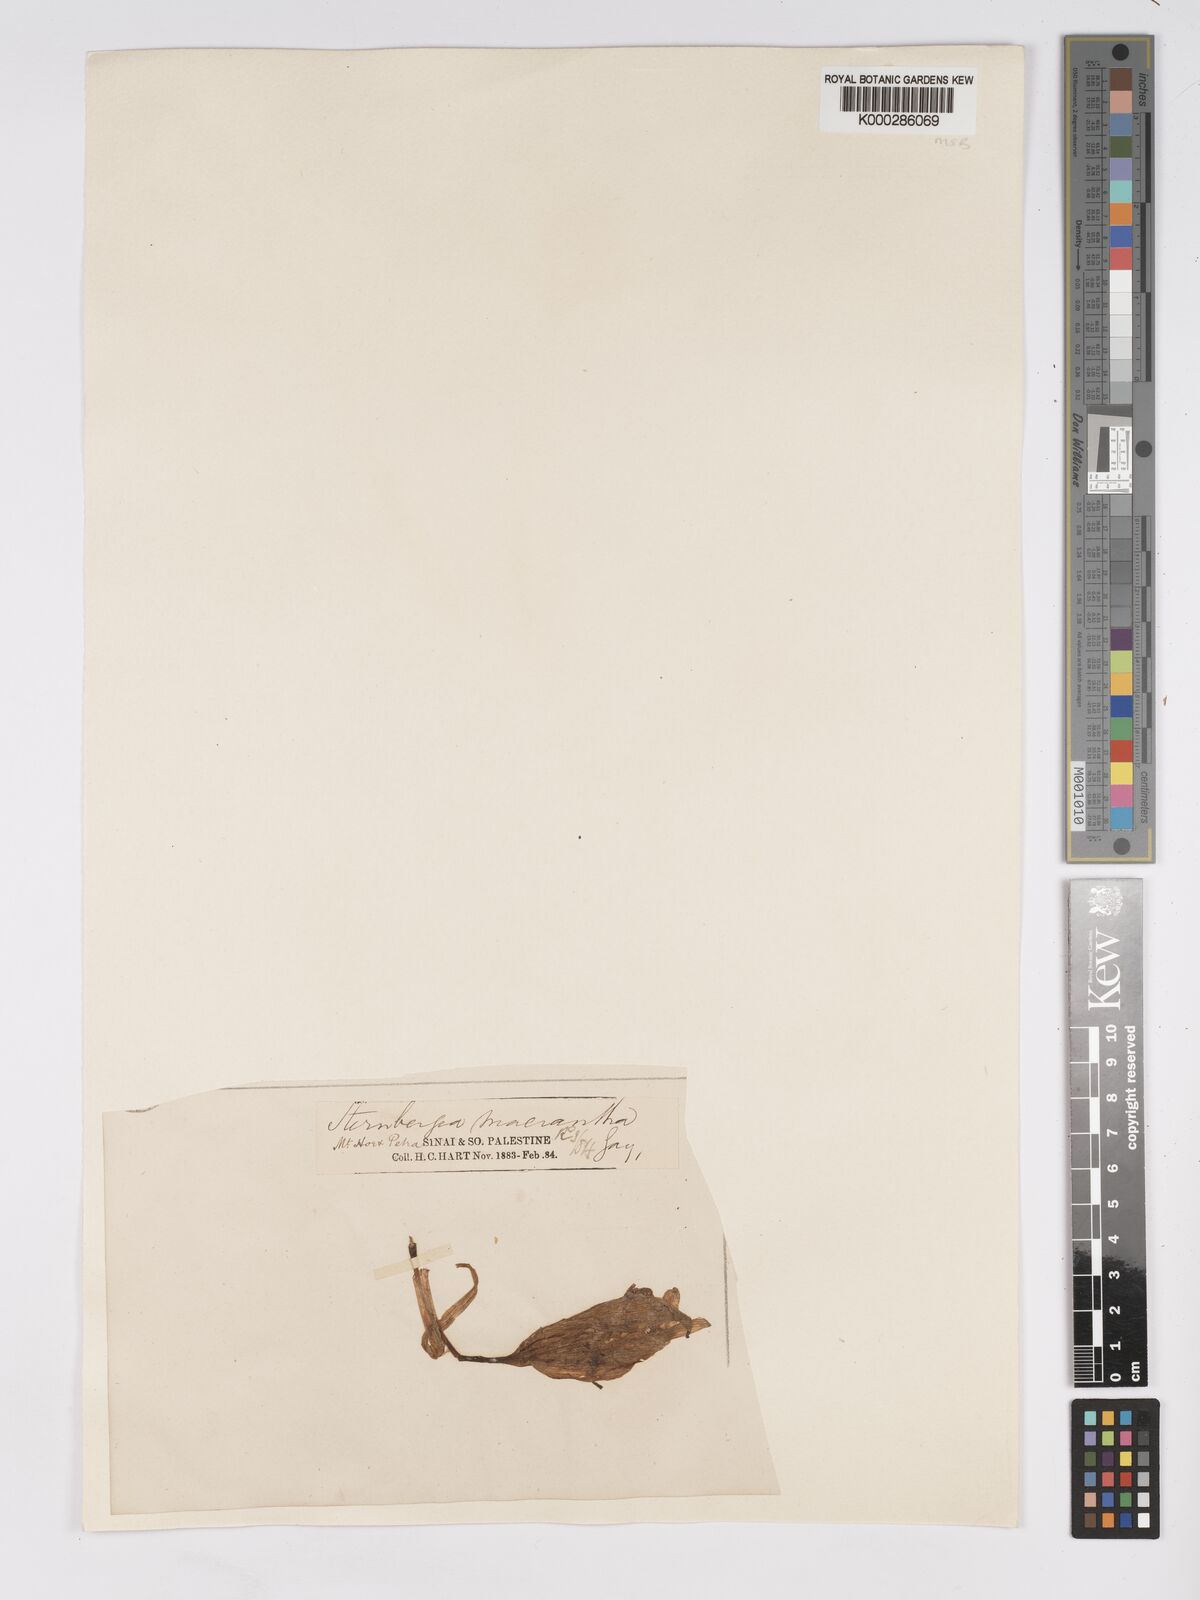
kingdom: Plantae
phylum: Tracheophyta
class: Liliopsida
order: Asparagales
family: Amaryllidaceae
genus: Sternbergia
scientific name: Sternbergia clusiana
